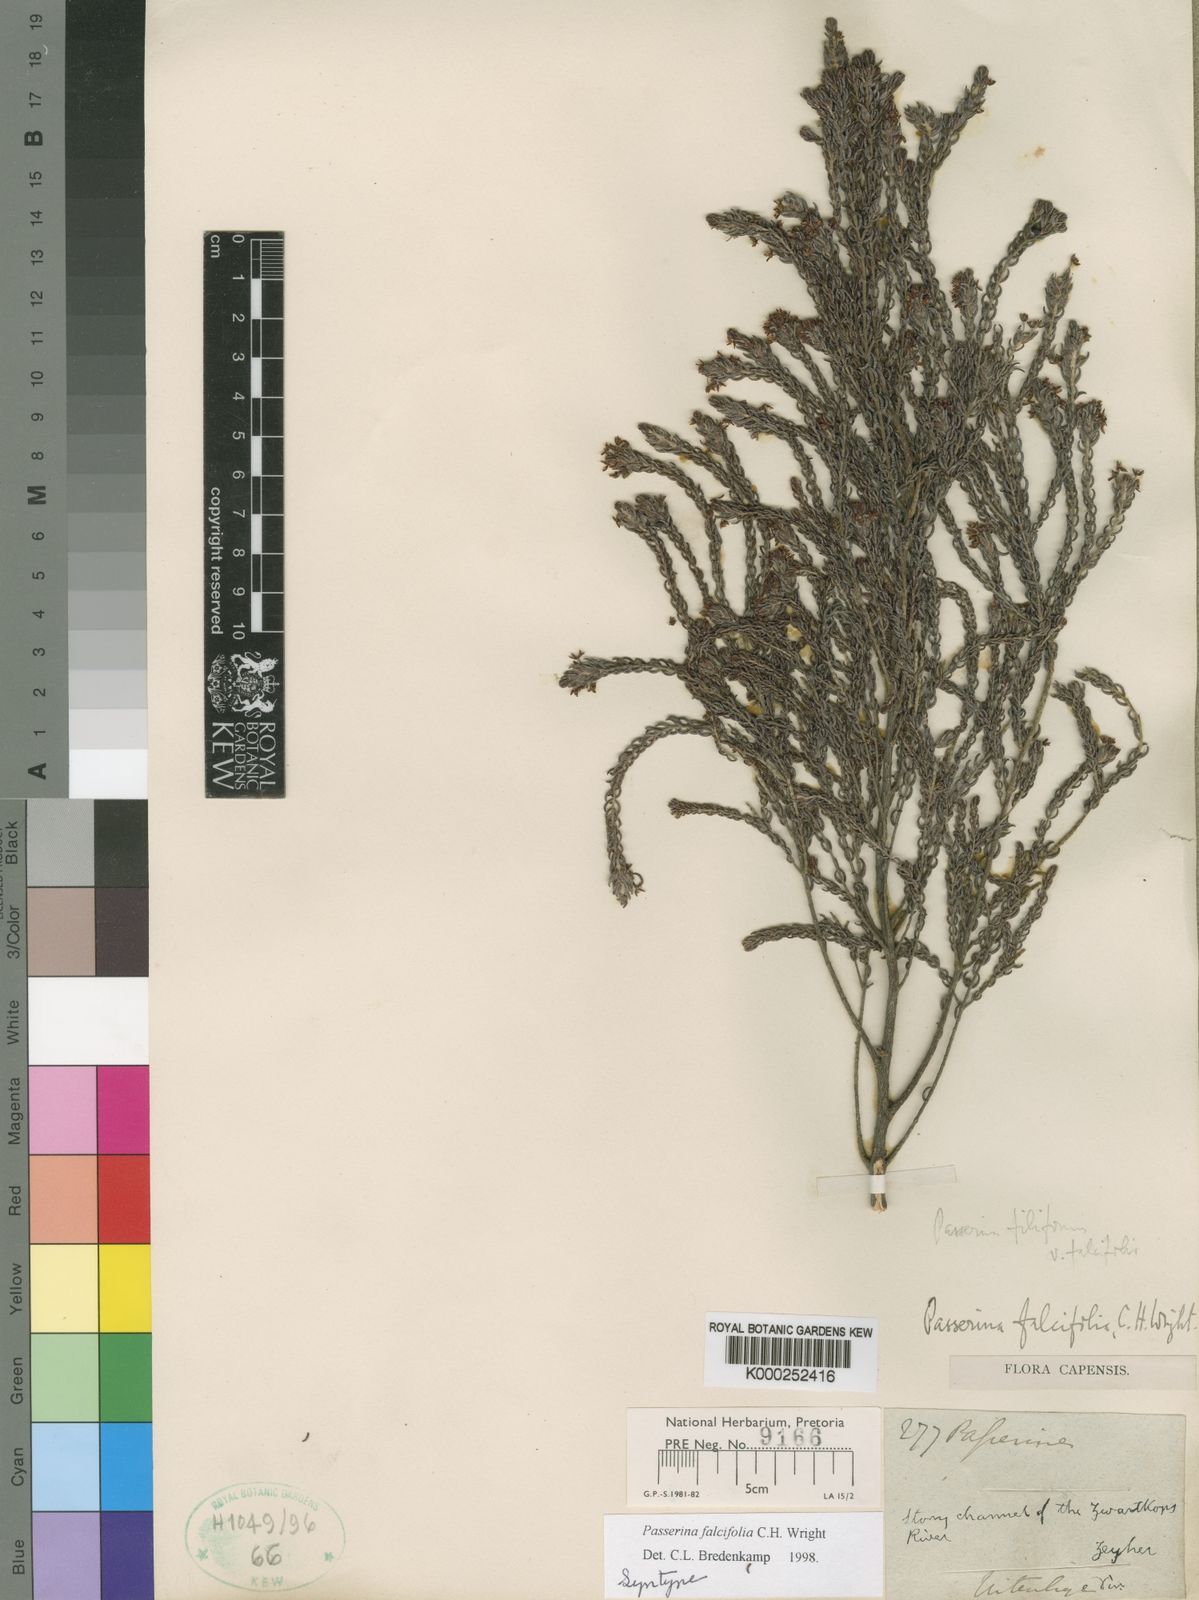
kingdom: Plantae
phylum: Tracheophyta
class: Magnoliopsida
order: Malvales
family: Thymelaeaceae
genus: Passerina
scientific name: Passerina falcifolia
